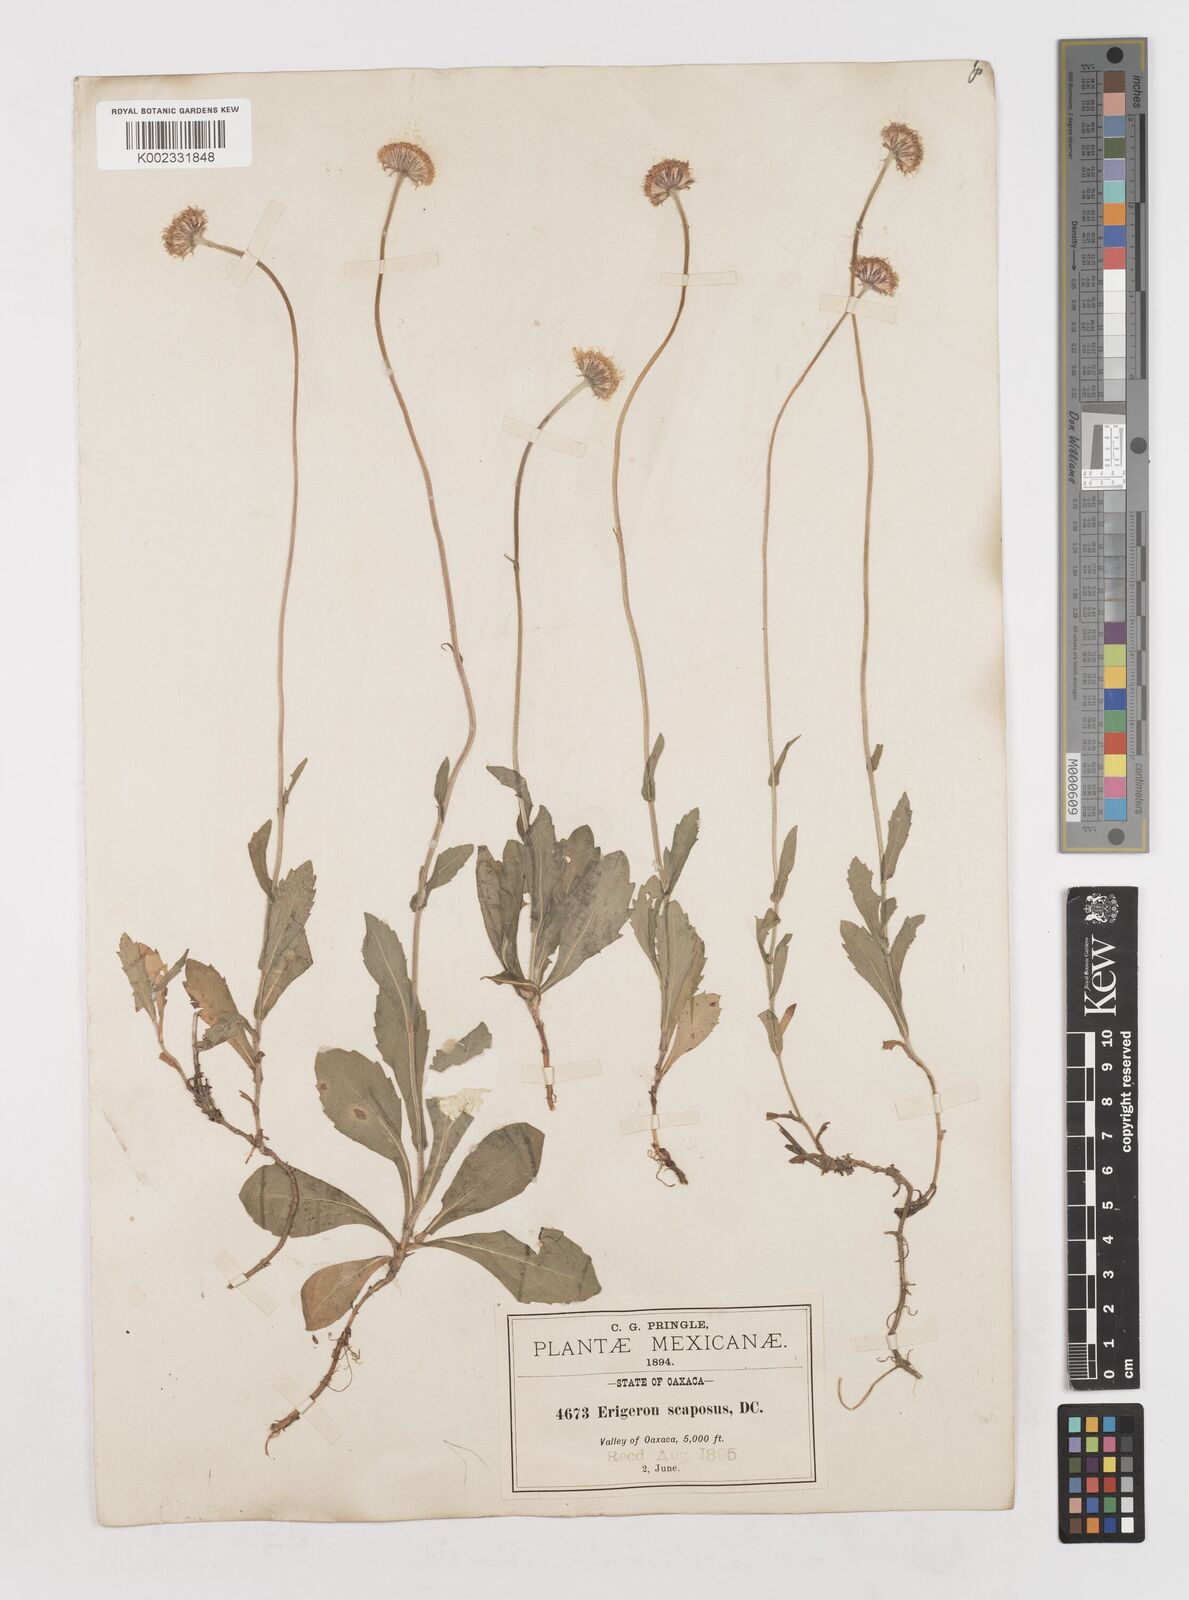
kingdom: Plantae
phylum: Tracheophyta
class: Magnoliopsida
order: Asterales
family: Asteraceae
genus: Erigeron
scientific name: Erigeron longipes
